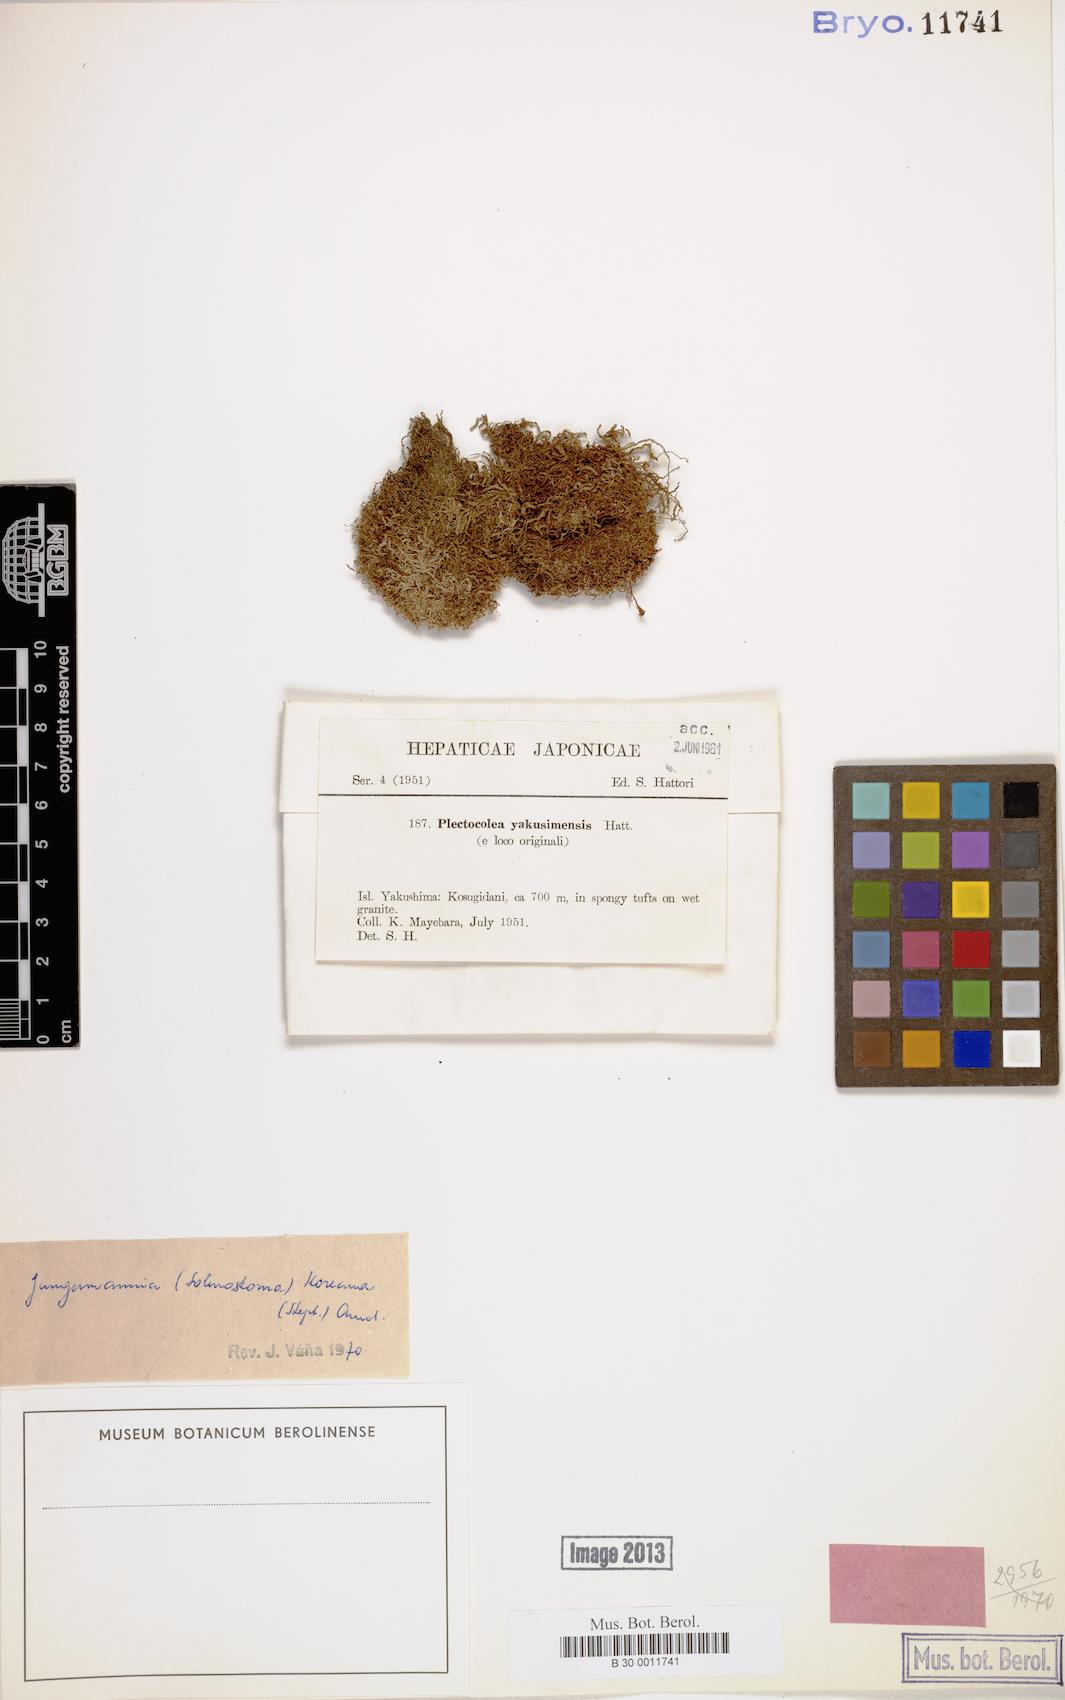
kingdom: Plantae
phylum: Marchantiophyta
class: Jungermanniopsida
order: Jungermanniales
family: Solenostomataceae
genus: Solenostoma
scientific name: Solenostoma fusiforme
